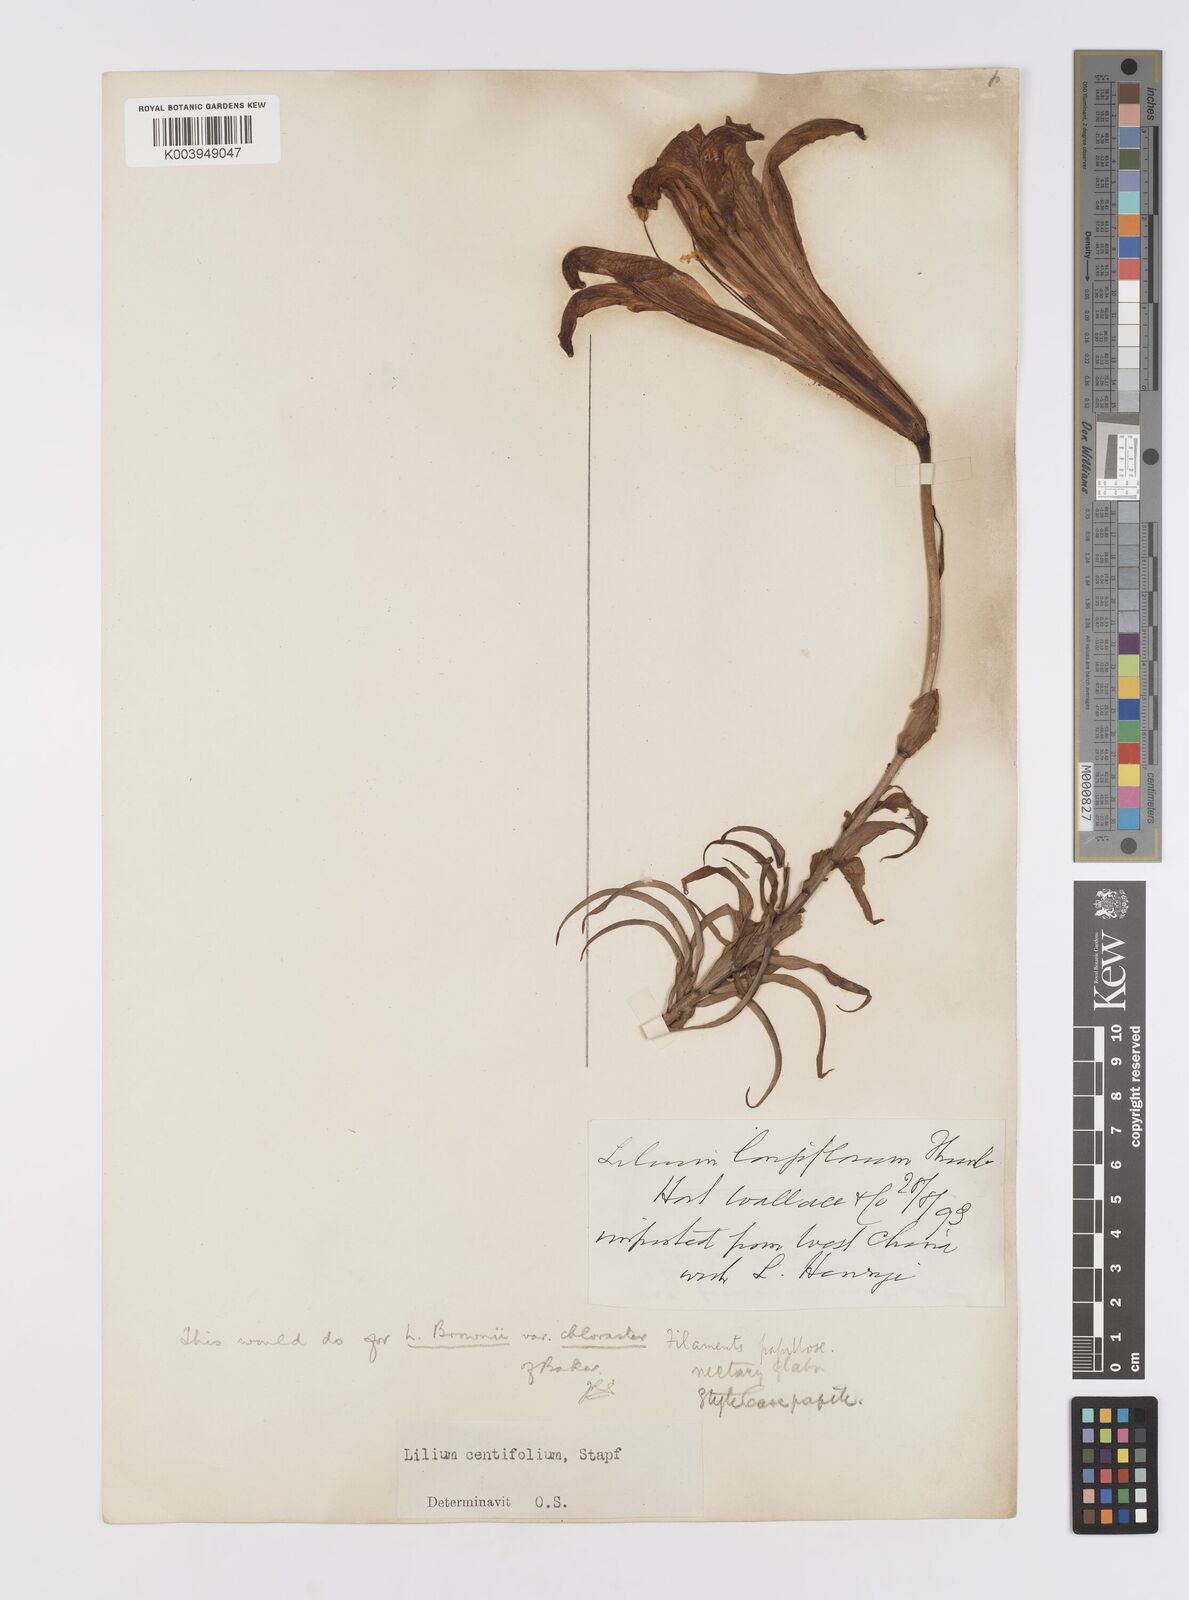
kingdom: Plantae
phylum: Tracheophyta
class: Liliopsida
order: Liliales
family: Liliaceae
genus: Lilium
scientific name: Lilium leucanthum
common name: Chinese white lily
